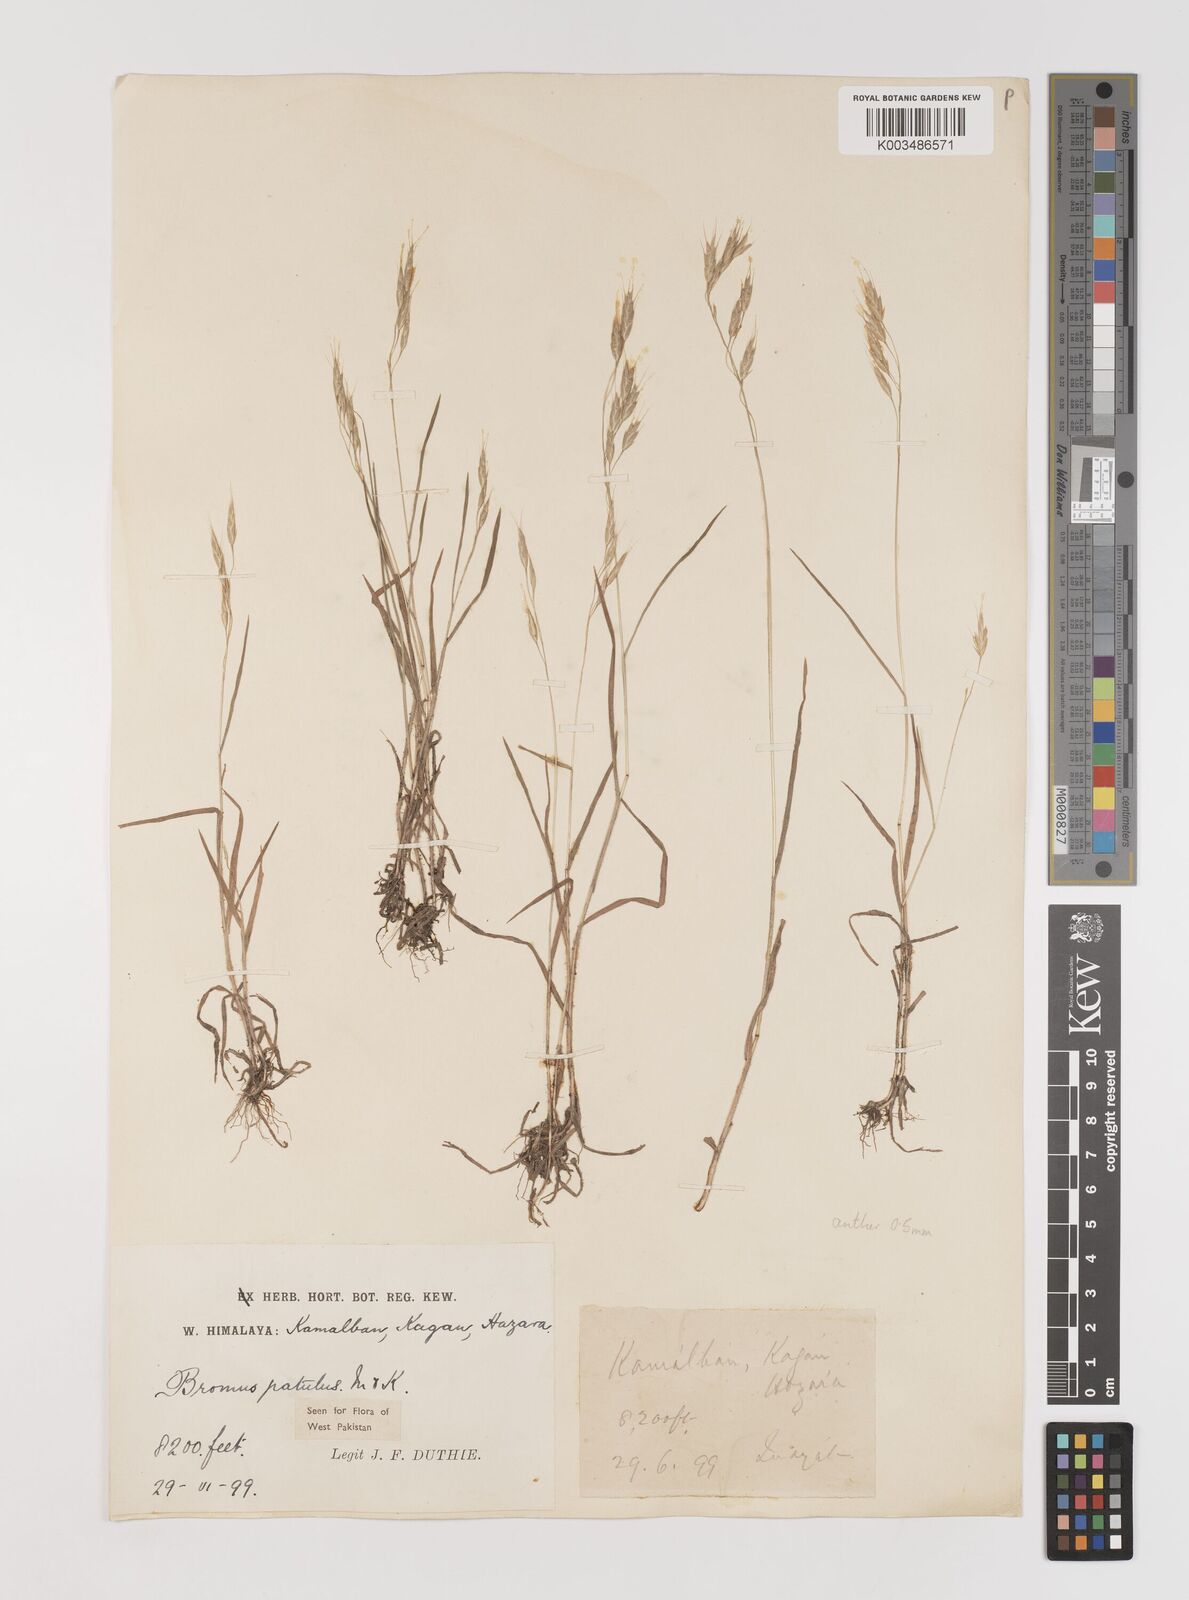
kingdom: Plantae
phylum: Tracheophyta
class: Liliopsida
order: Poales
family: Poaceae
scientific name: Poaceae
